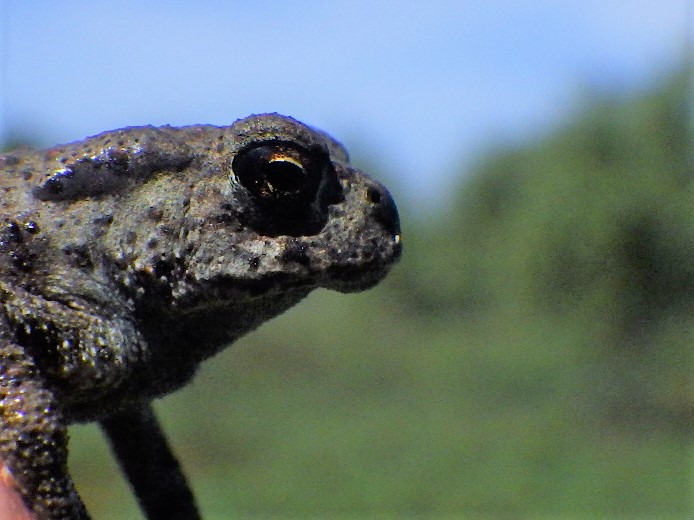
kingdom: Animalia
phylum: Chordata
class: Amphibia
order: Anura
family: Bufonidae
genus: Bufo
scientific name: Bufo bufo
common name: Skrubtudse
